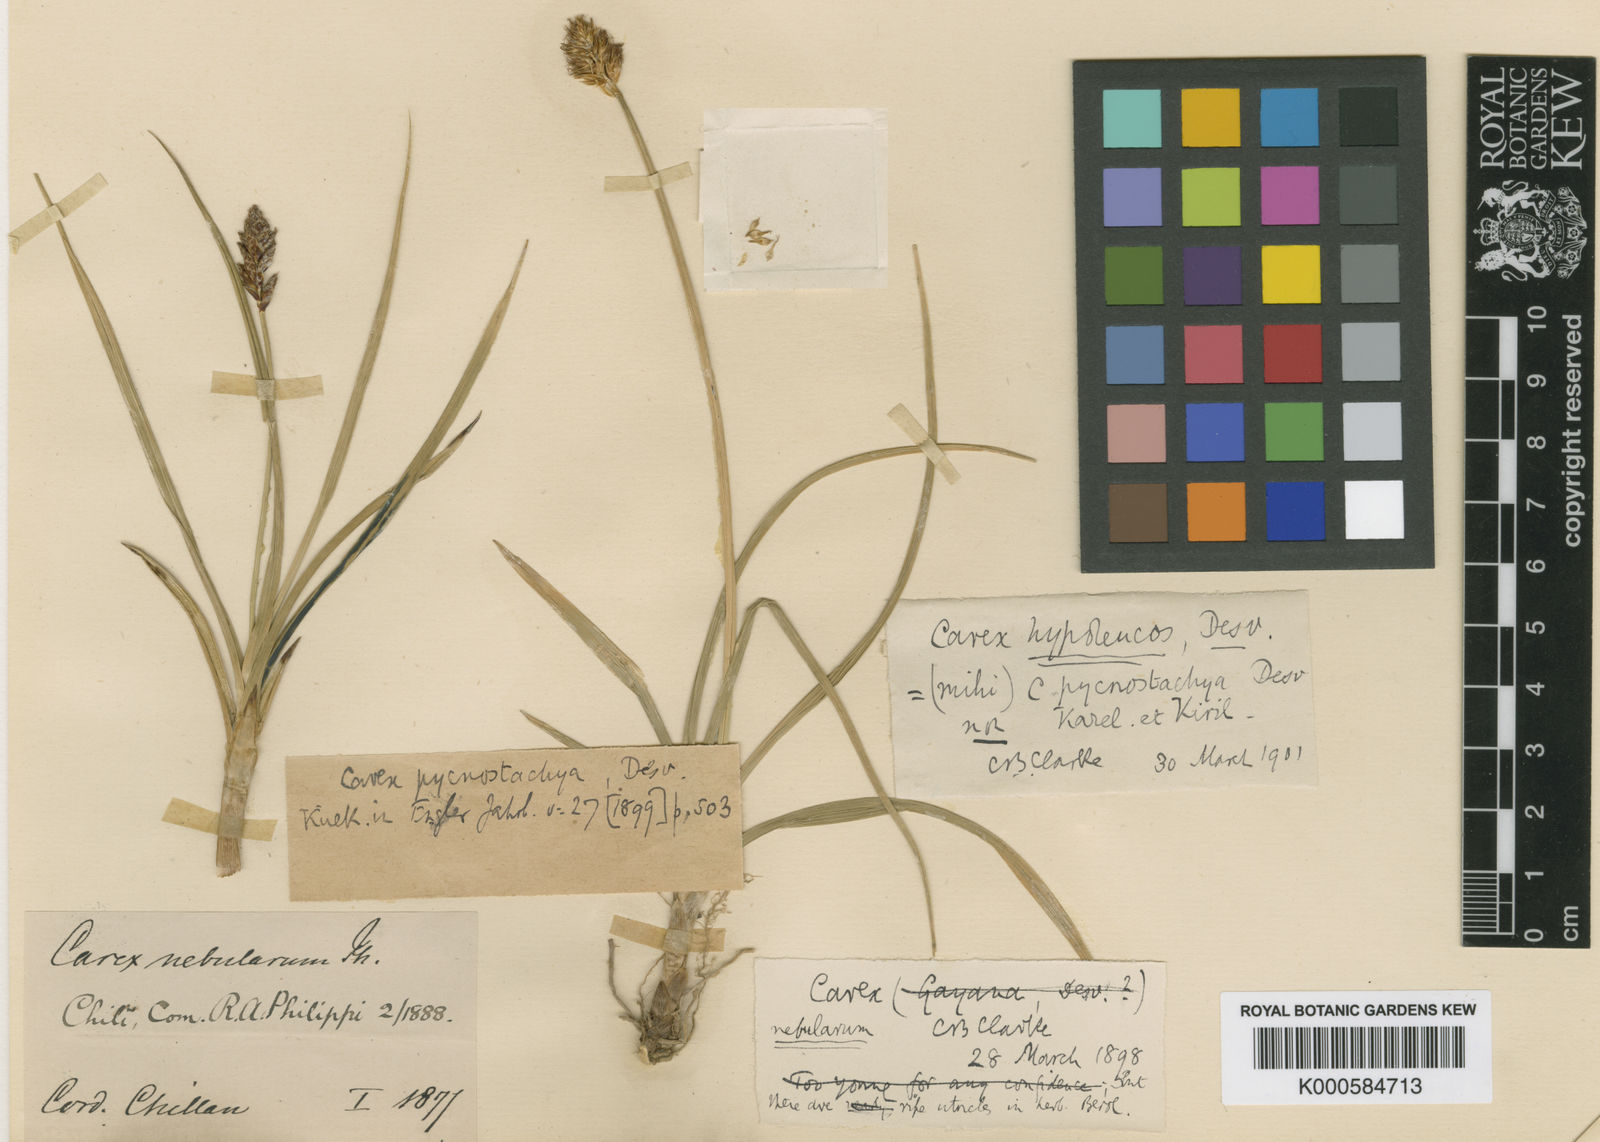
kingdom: Plantae
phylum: Tracheophyta
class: Liliopsida
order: Poales
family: Cyperaceae
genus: Carex
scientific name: Carex nebularum
